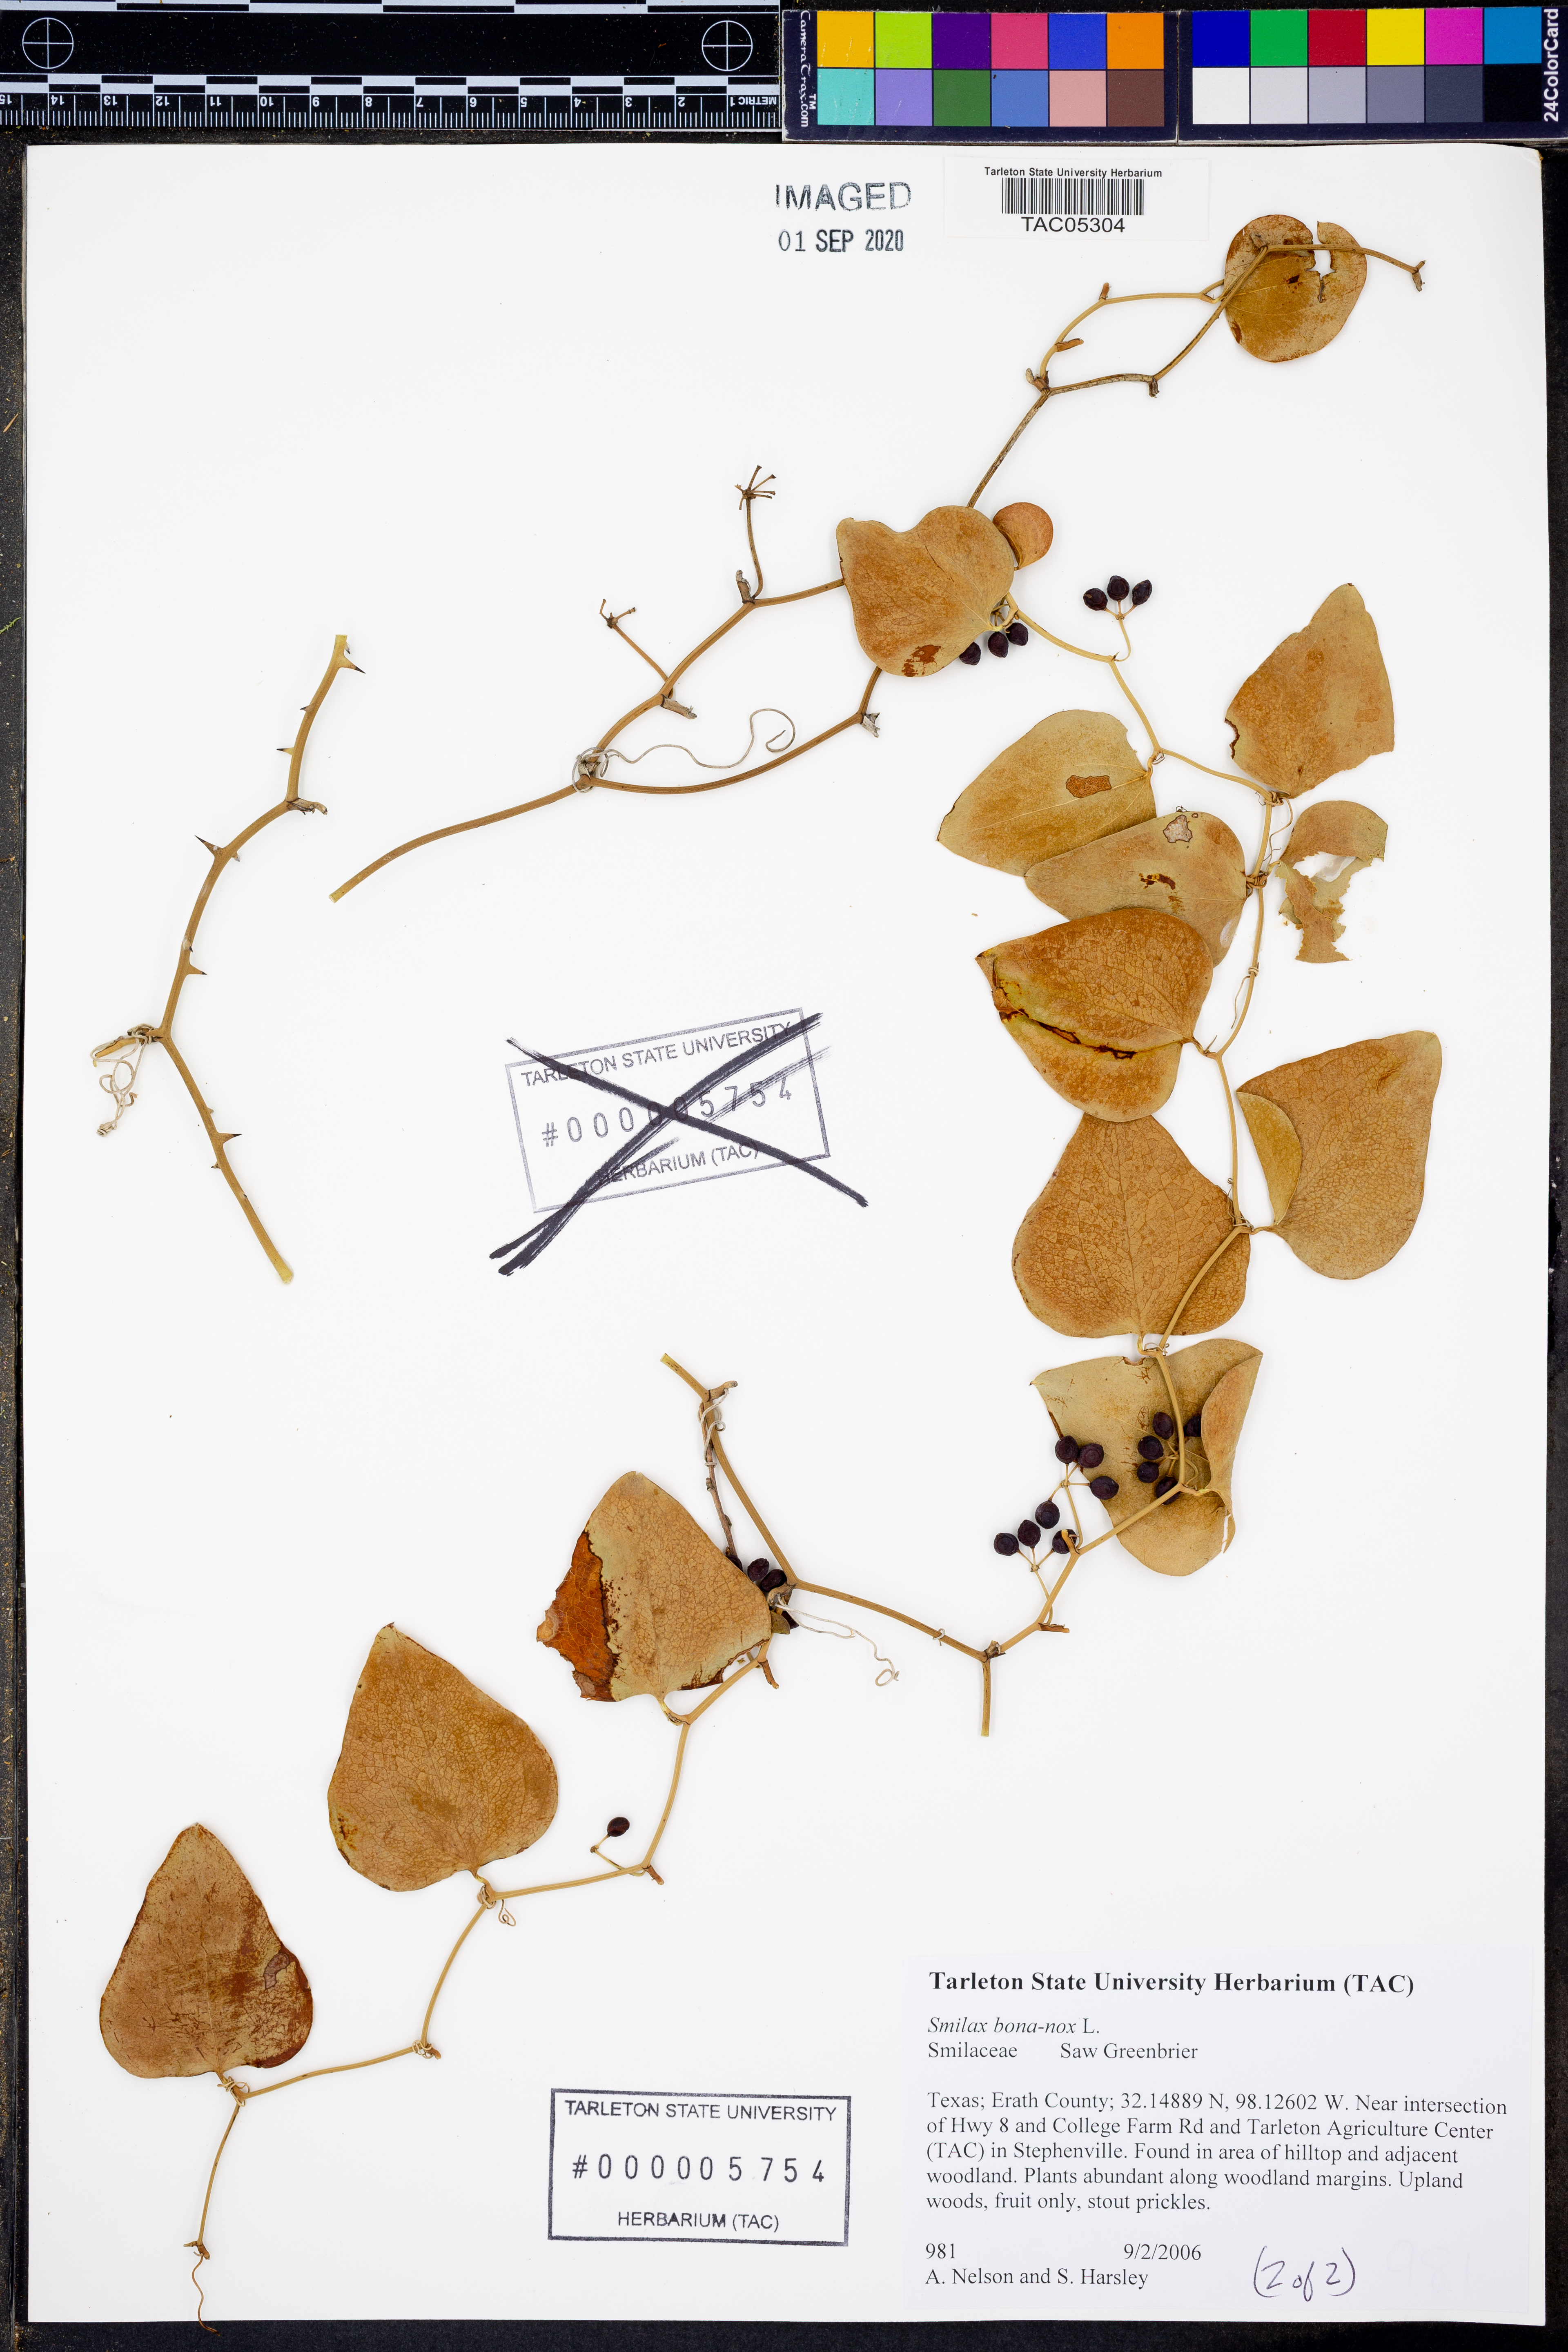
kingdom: Plantae
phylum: Tracheophyta
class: Liliopsida
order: Liliales
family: Smilacaceae
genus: Smilax
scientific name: Smilax bona-nox
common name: Catbrier
